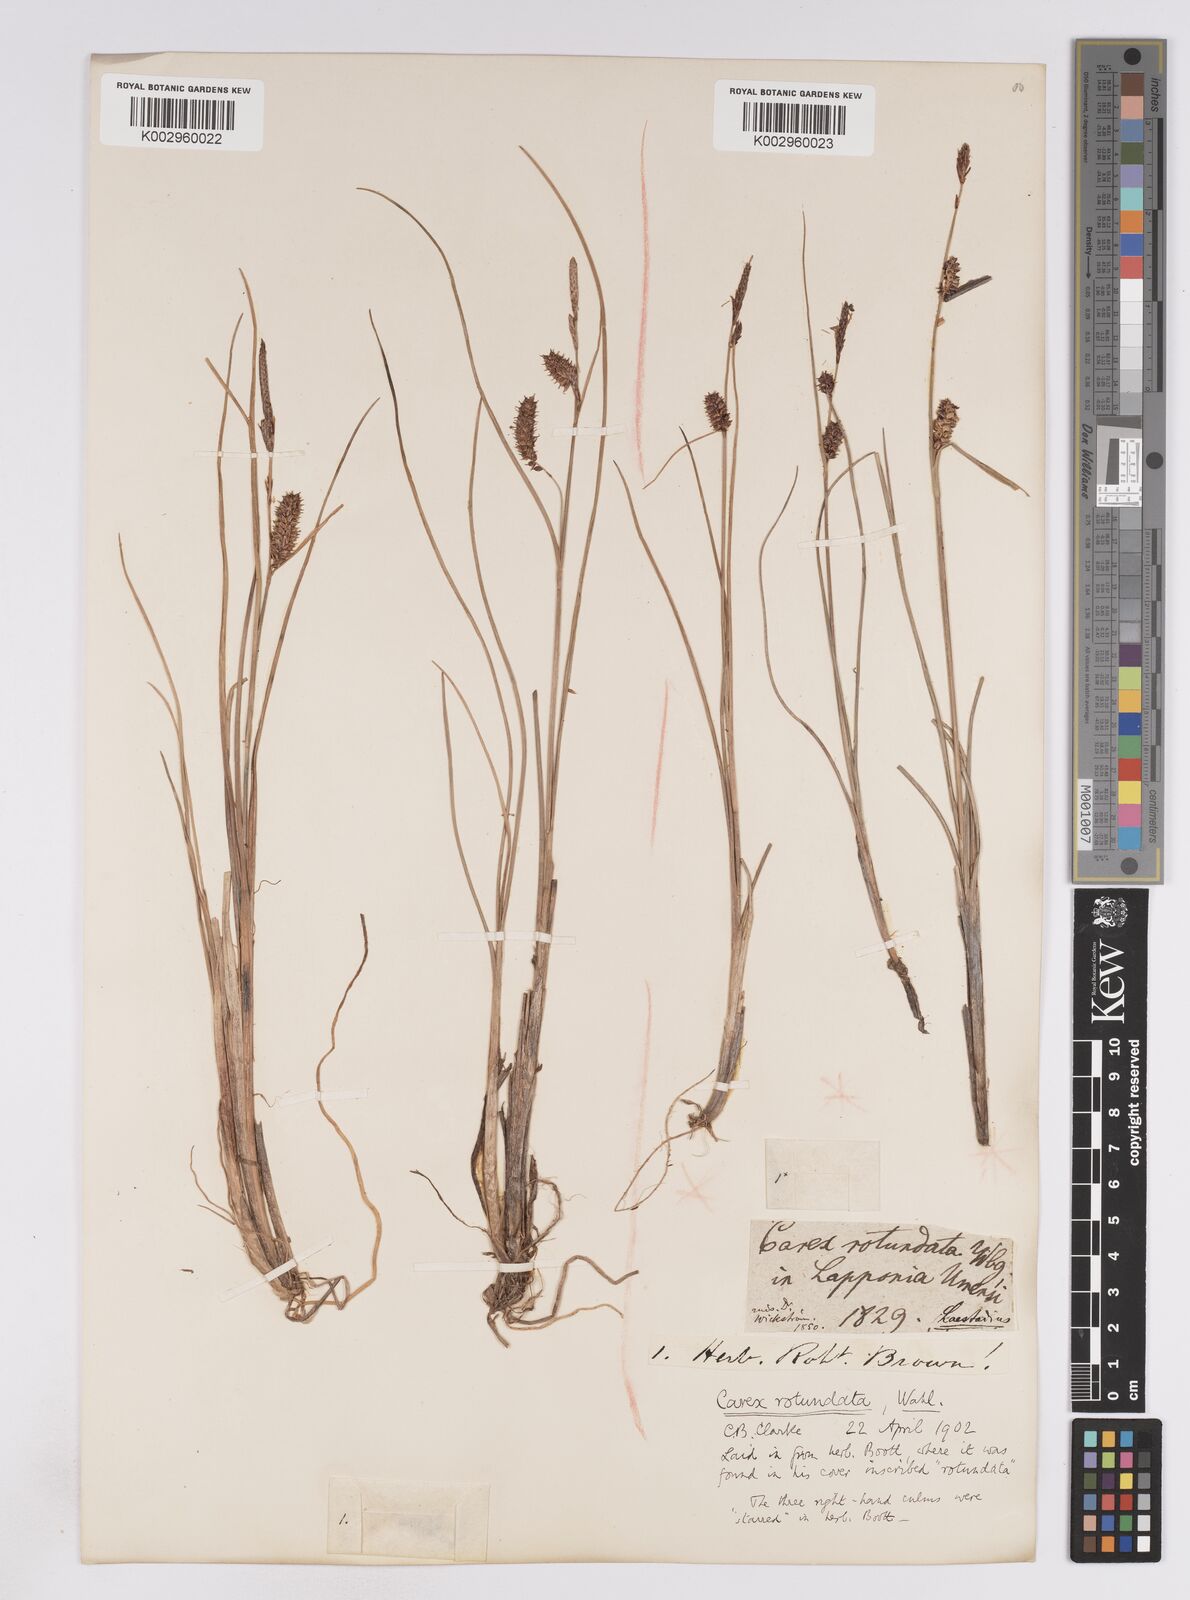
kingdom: Plantae
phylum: Tracheophyta
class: Liliopsida
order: Poales
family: Cyperaceae
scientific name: Cyperaceae
